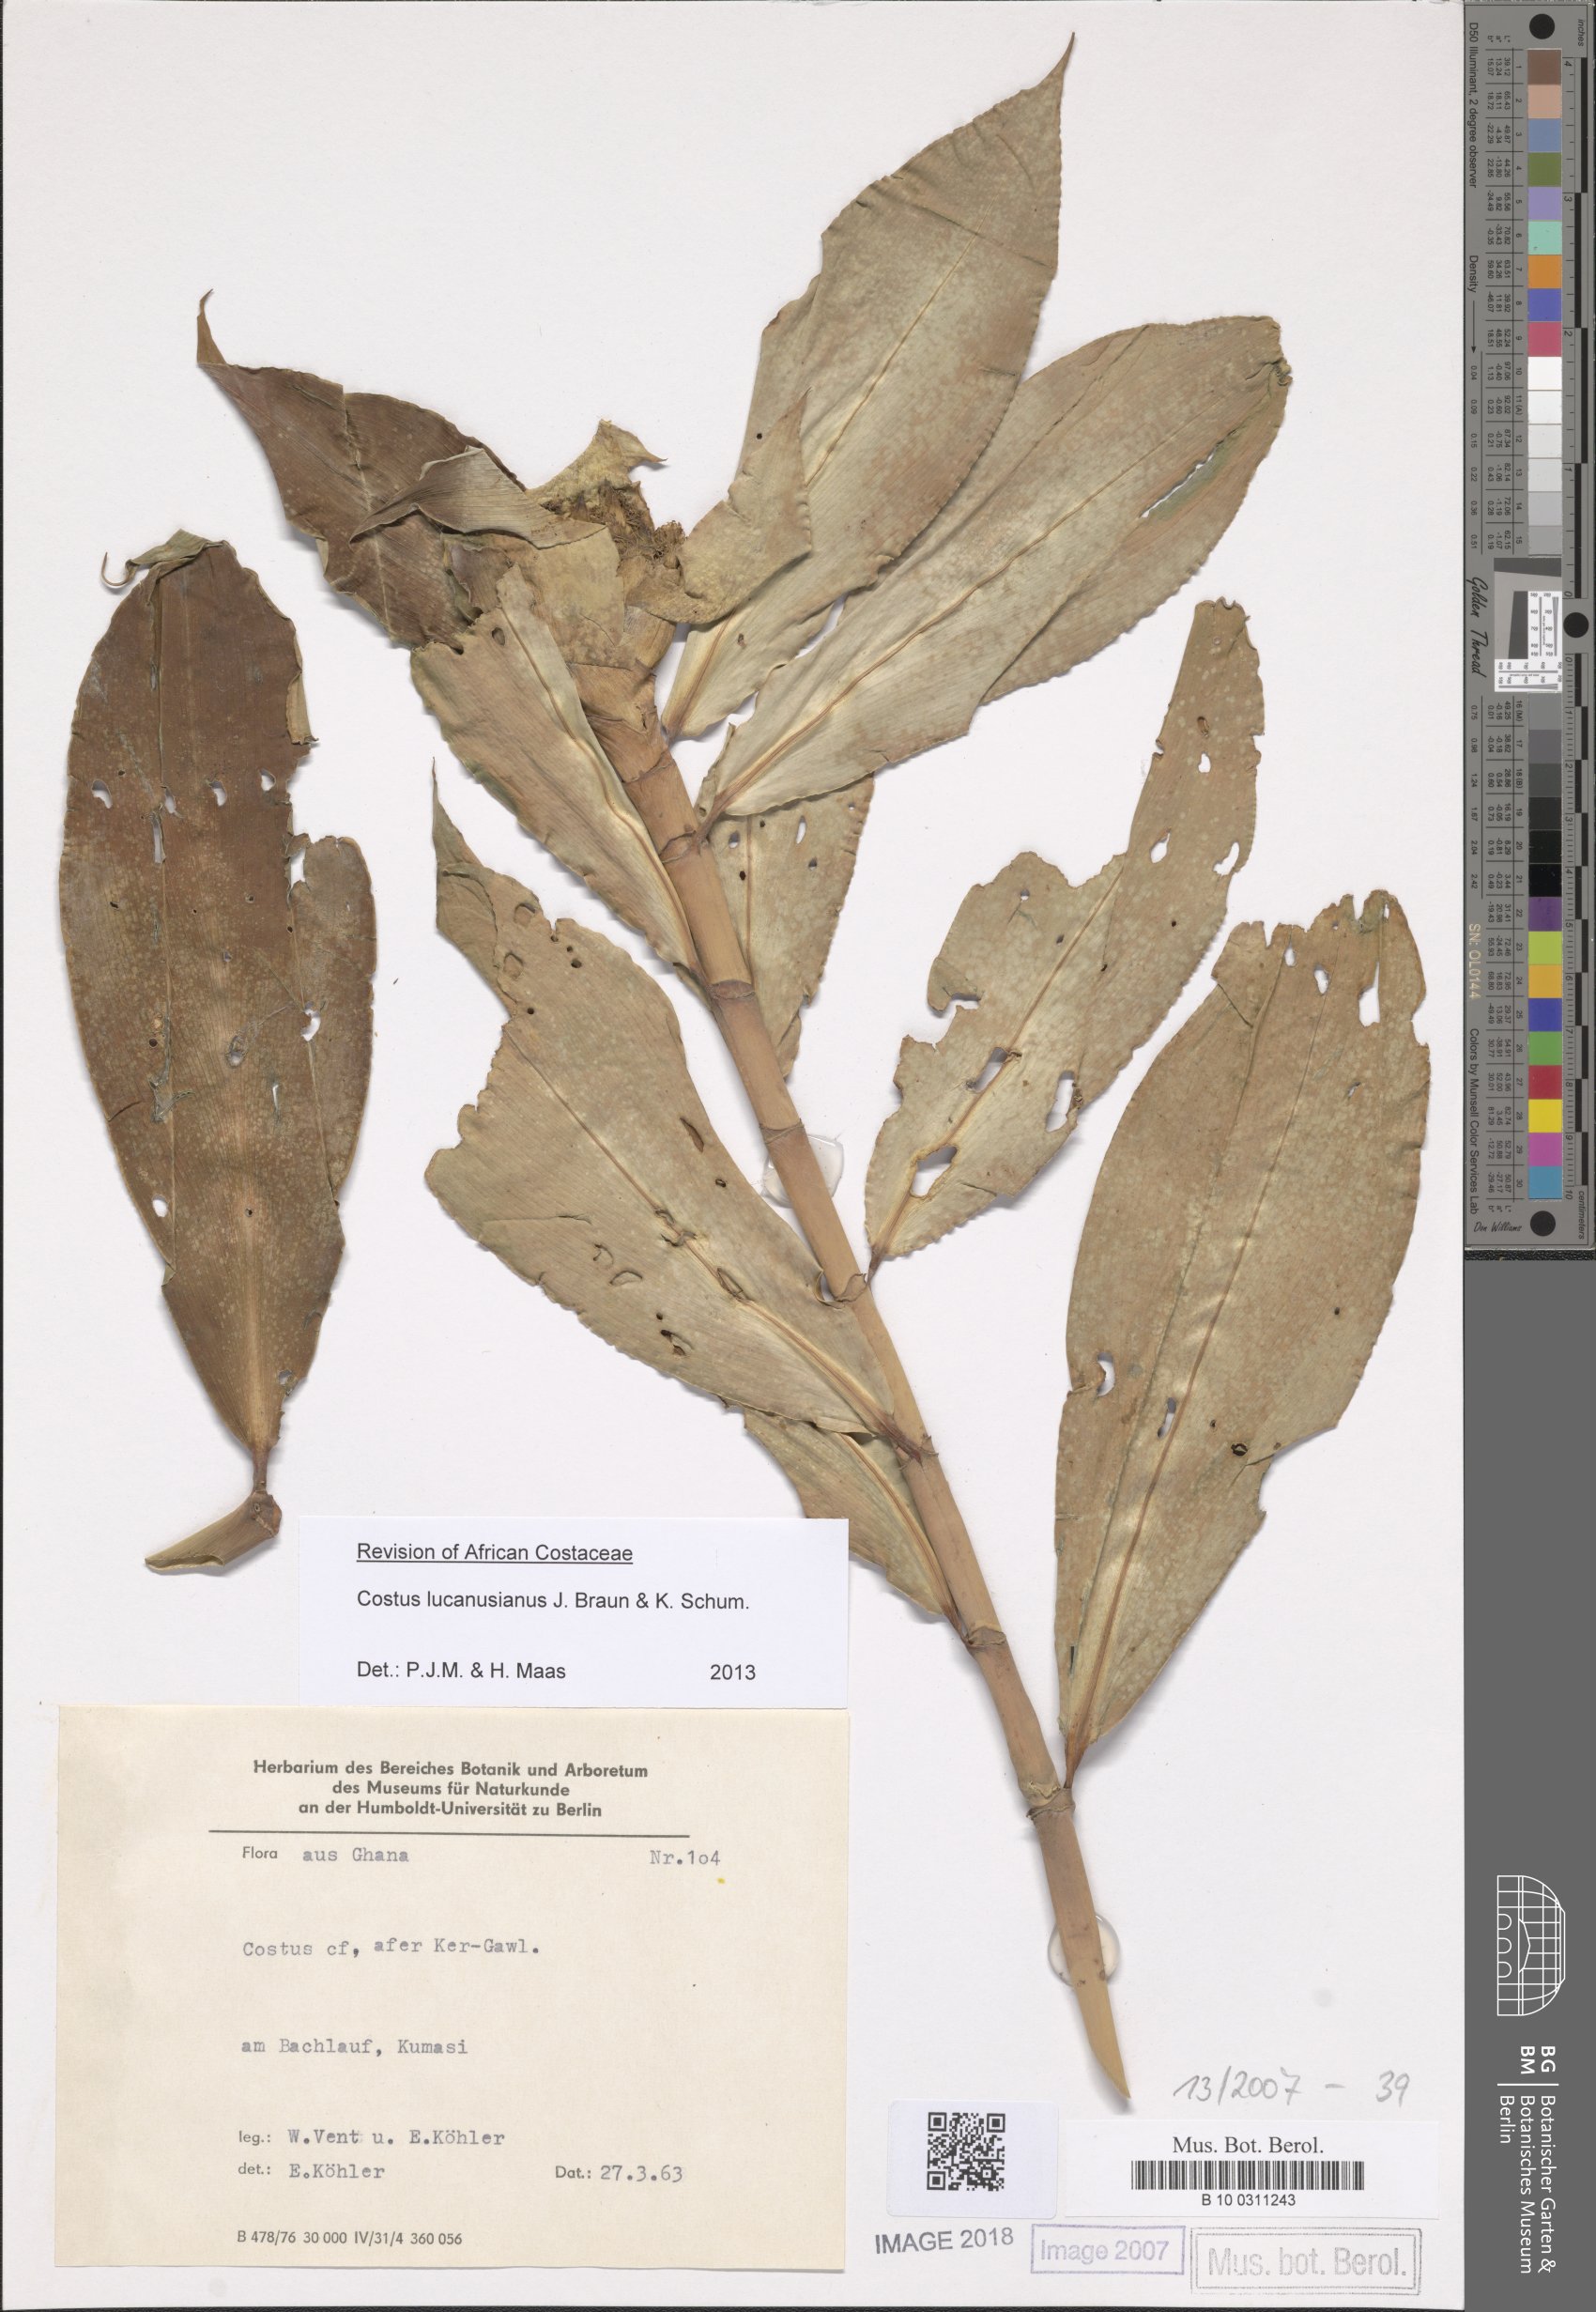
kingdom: Plantae
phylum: Tracheophyta
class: Liliopsida
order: Zingiberales
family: Costaceae
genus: Costus
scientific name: Costus lucanusianus
